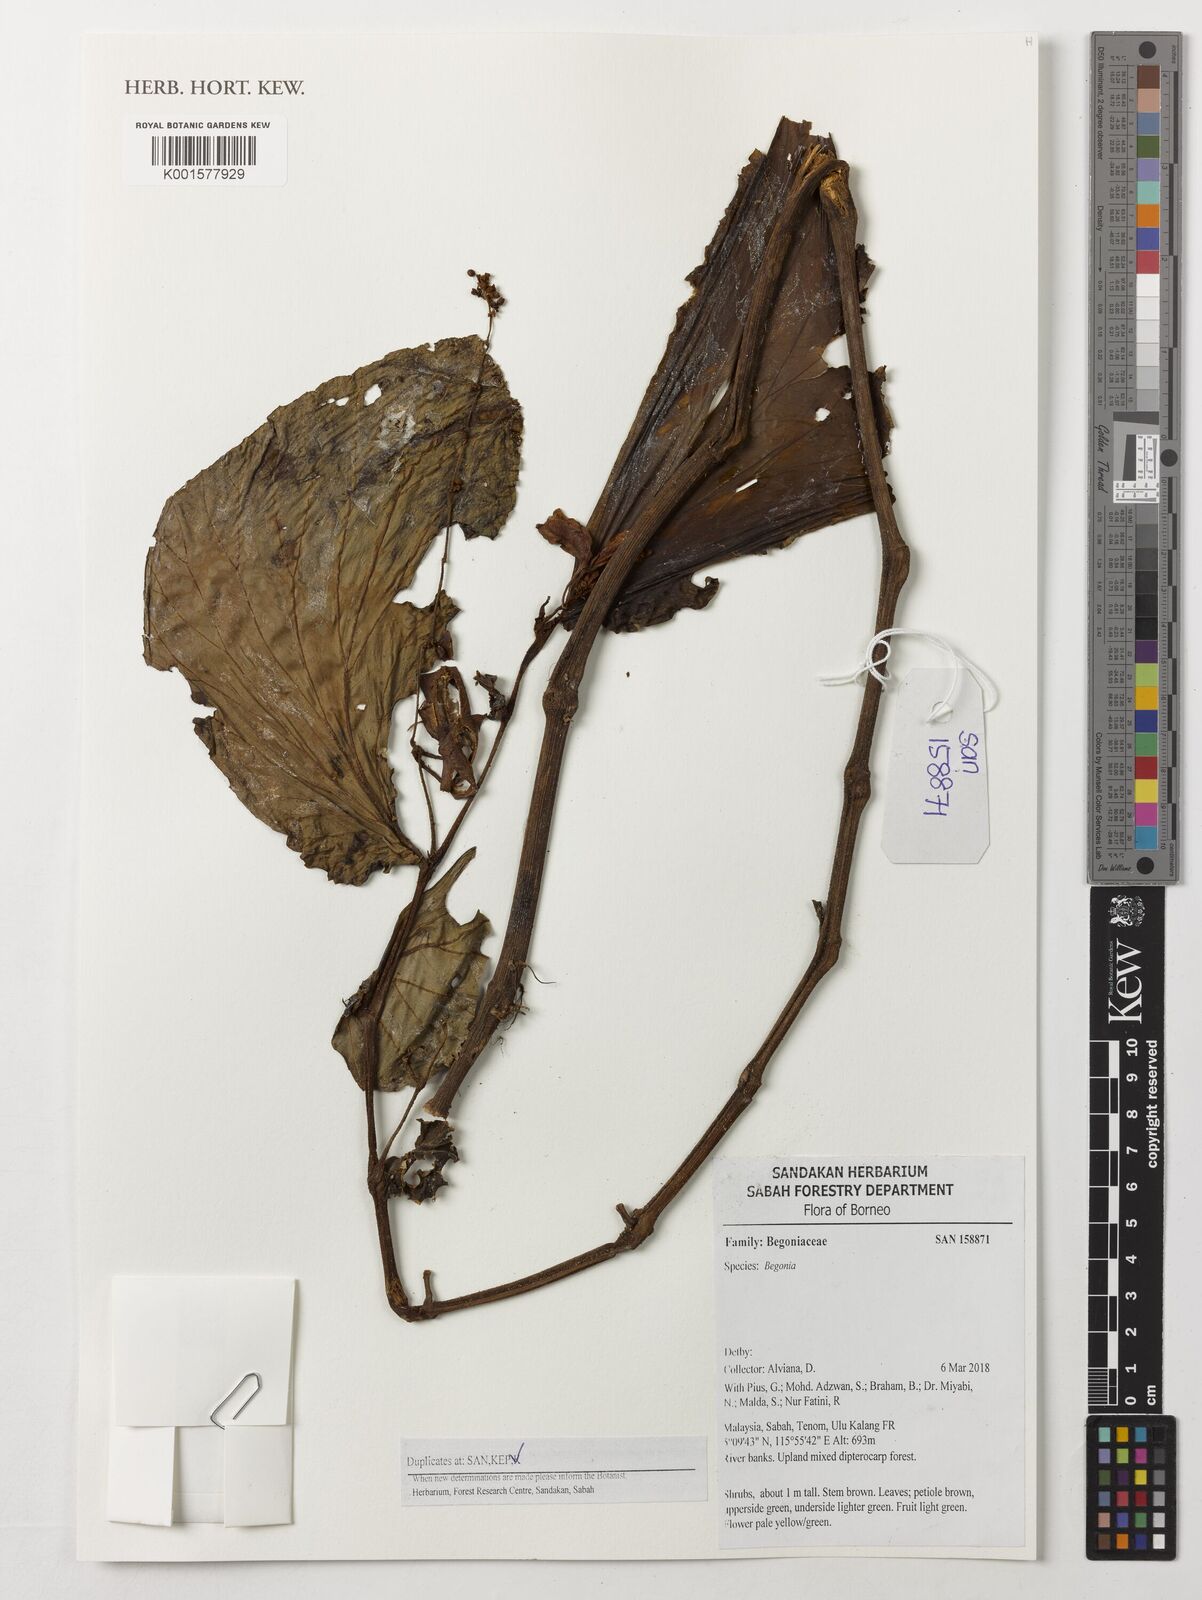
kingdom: Plantae
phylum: Tracheophyta
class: Magnoliopsida
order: Cucurbitales
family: Begoniaceae
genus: Begonia
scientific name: Begonia
